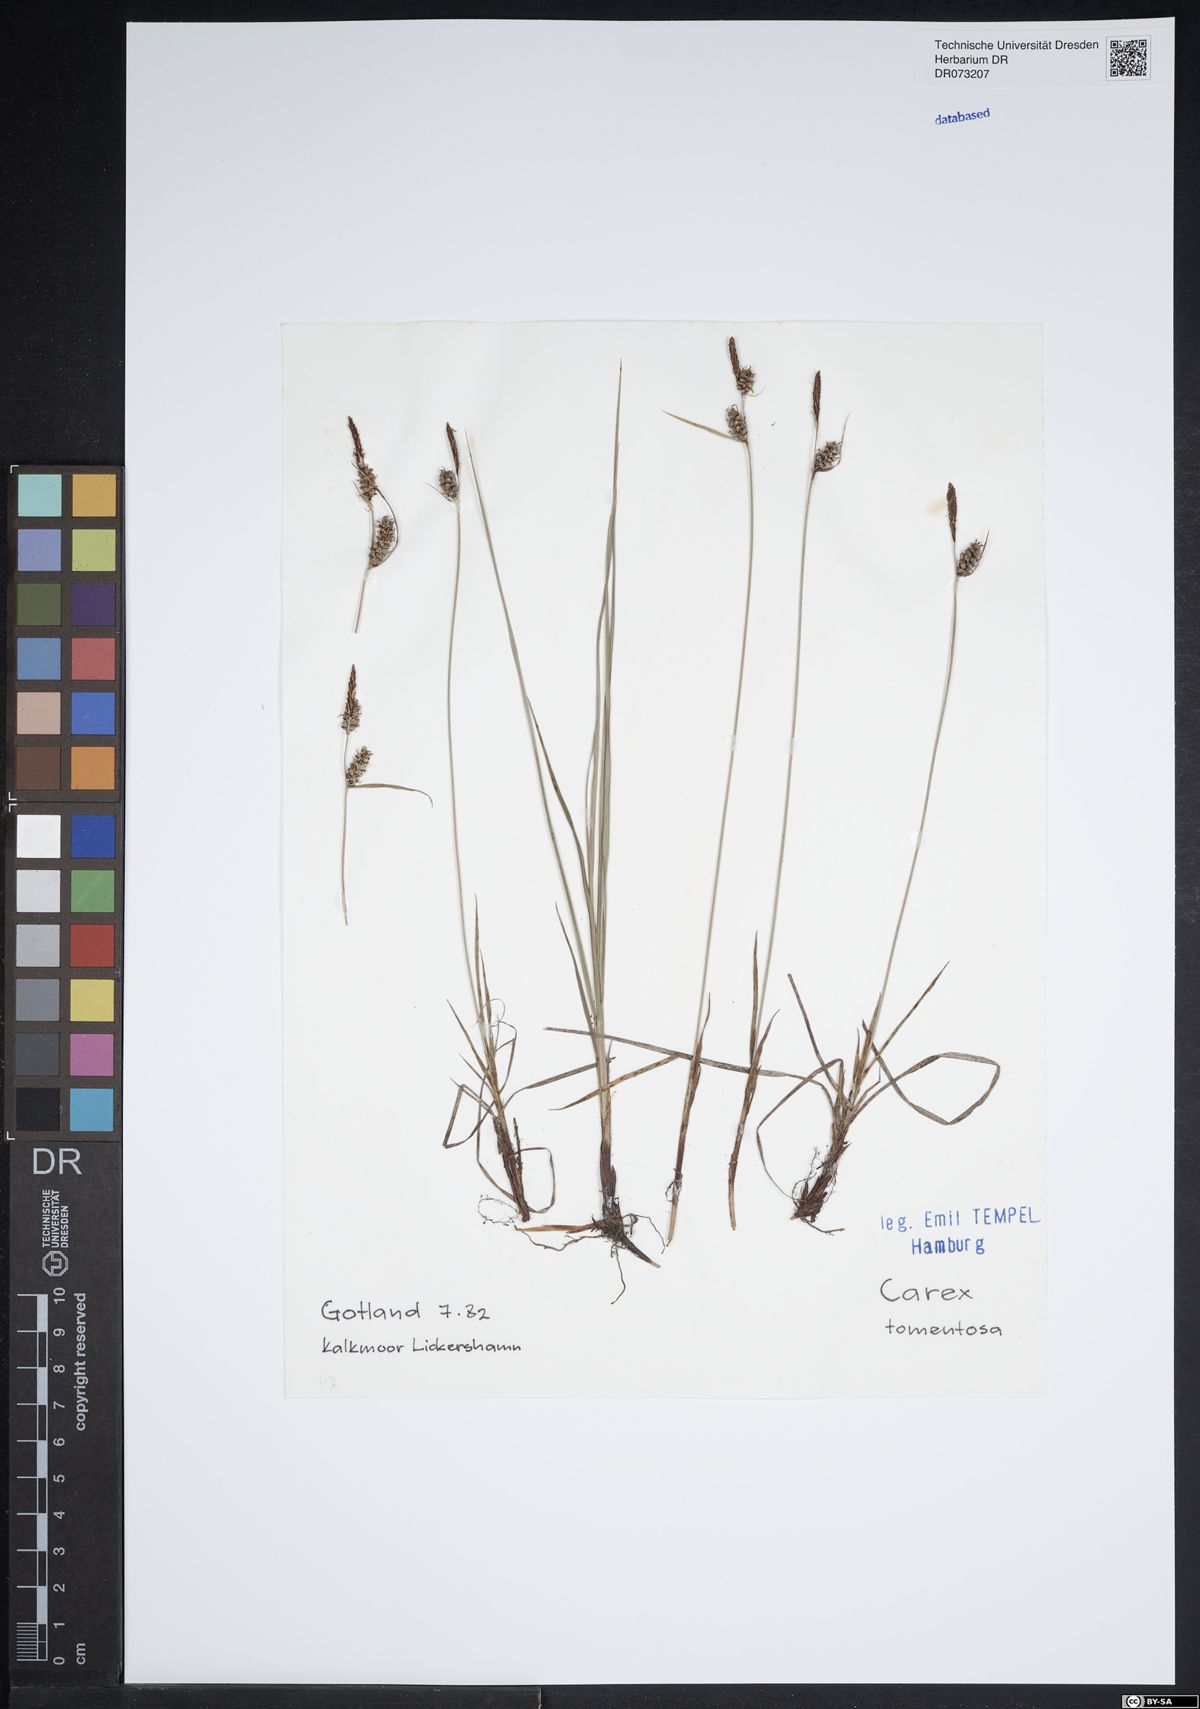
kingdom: Plantae
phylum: Tracheophyta
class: Liliopsida
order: Poales
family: Cyperaceae
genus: Carex
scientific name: Carex tomentosa
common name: Downy-fruited sedge
